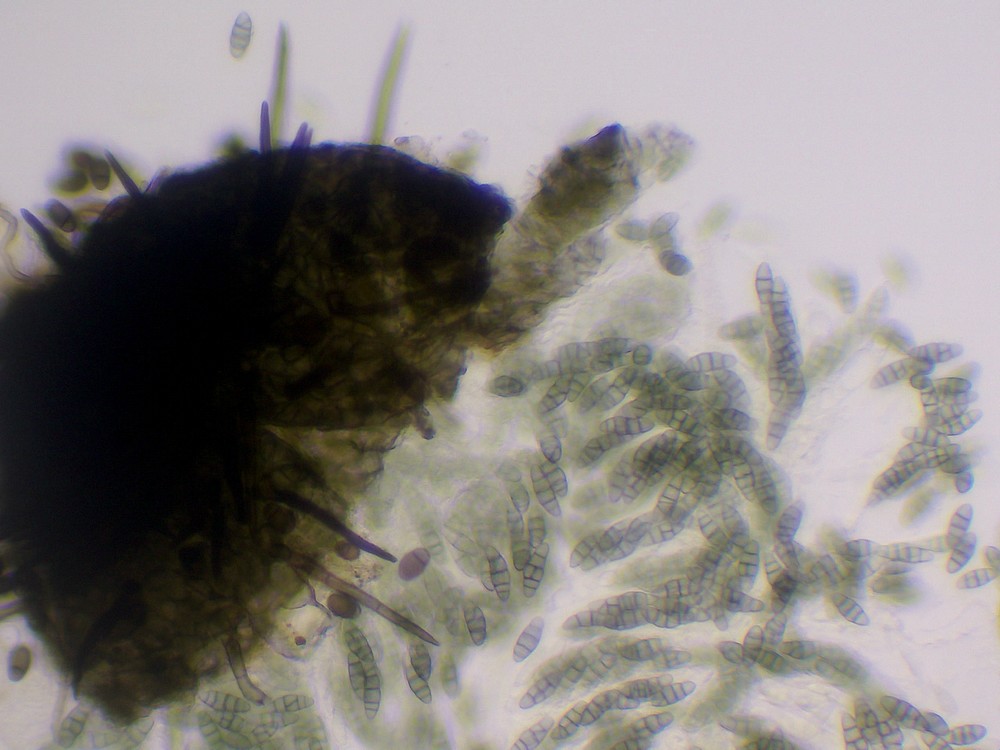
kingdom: Fungi
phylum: Ascomycota
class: Eurotiomycetes
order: Chaetothyriales
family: Herpotrichiellaceae
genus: Capronia
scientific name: Capronia pulcherrima
